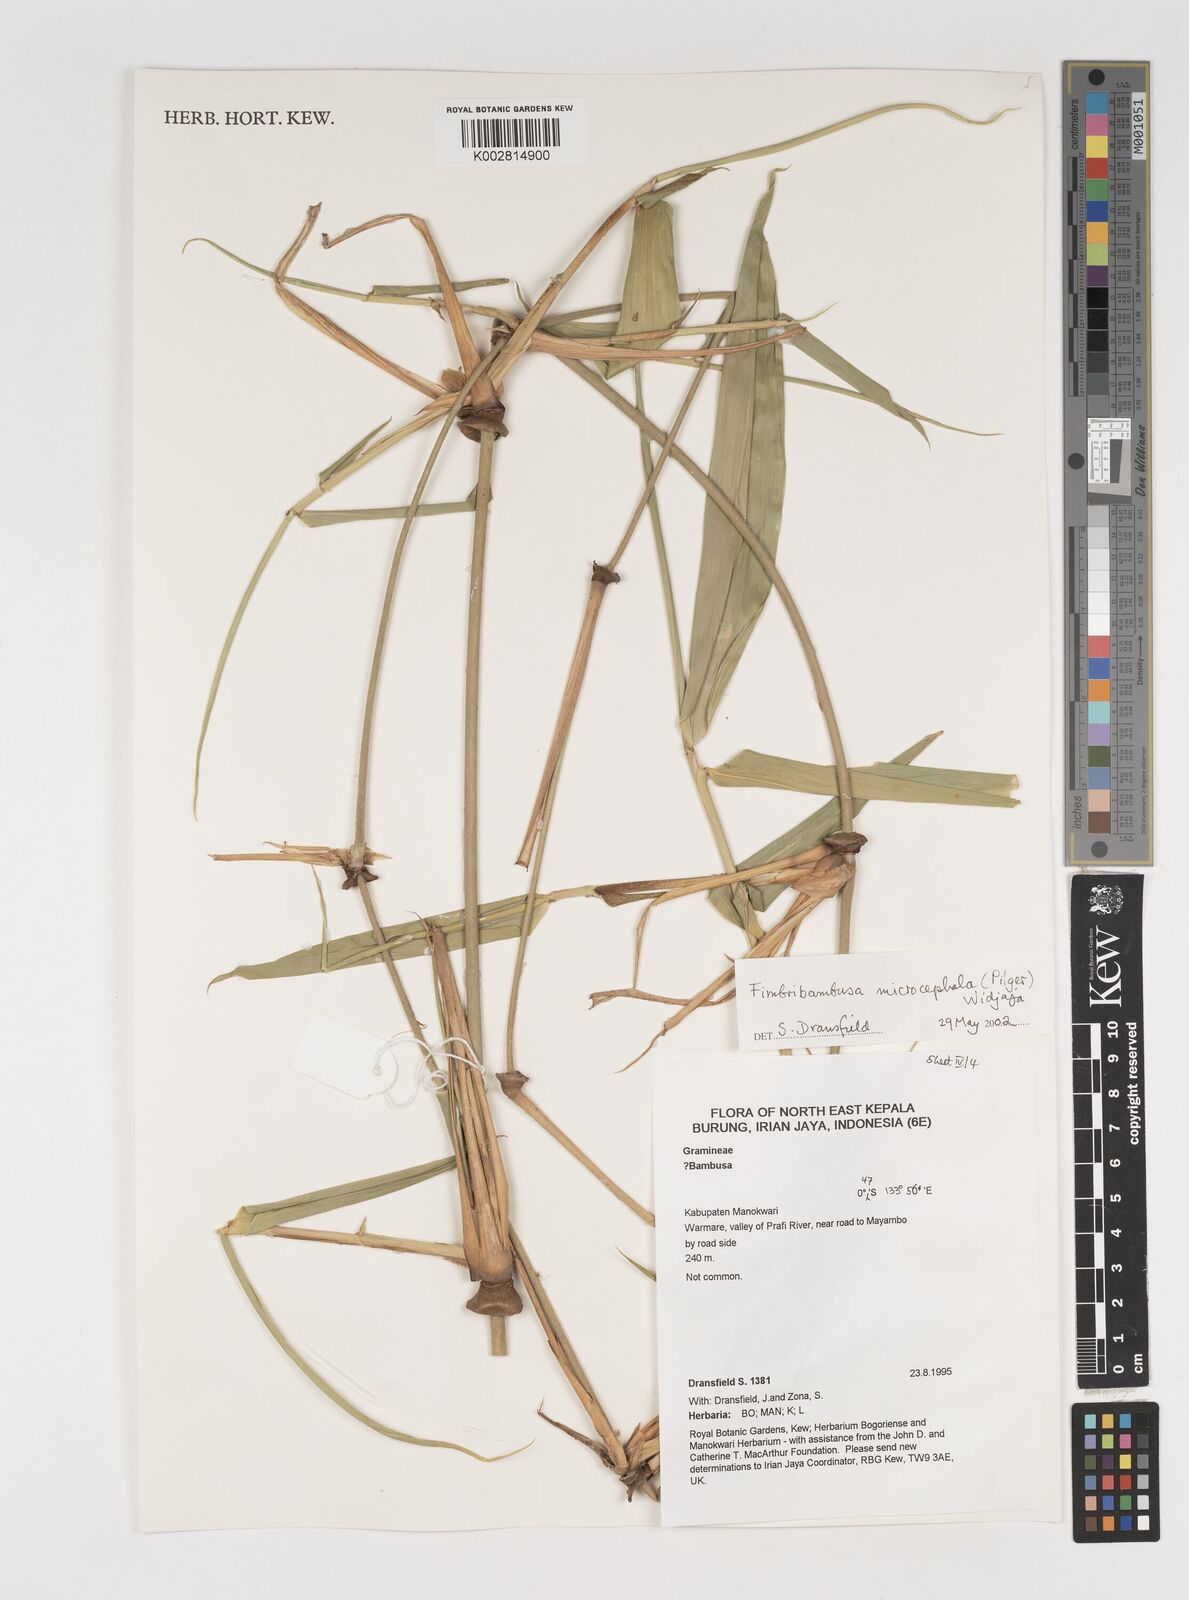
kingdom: Plantae
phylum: Tracheophyta
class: Liliopsida
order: Poales
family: Poaceae
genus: Fimbribambusa
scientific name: Fimbribambusa microcephala
